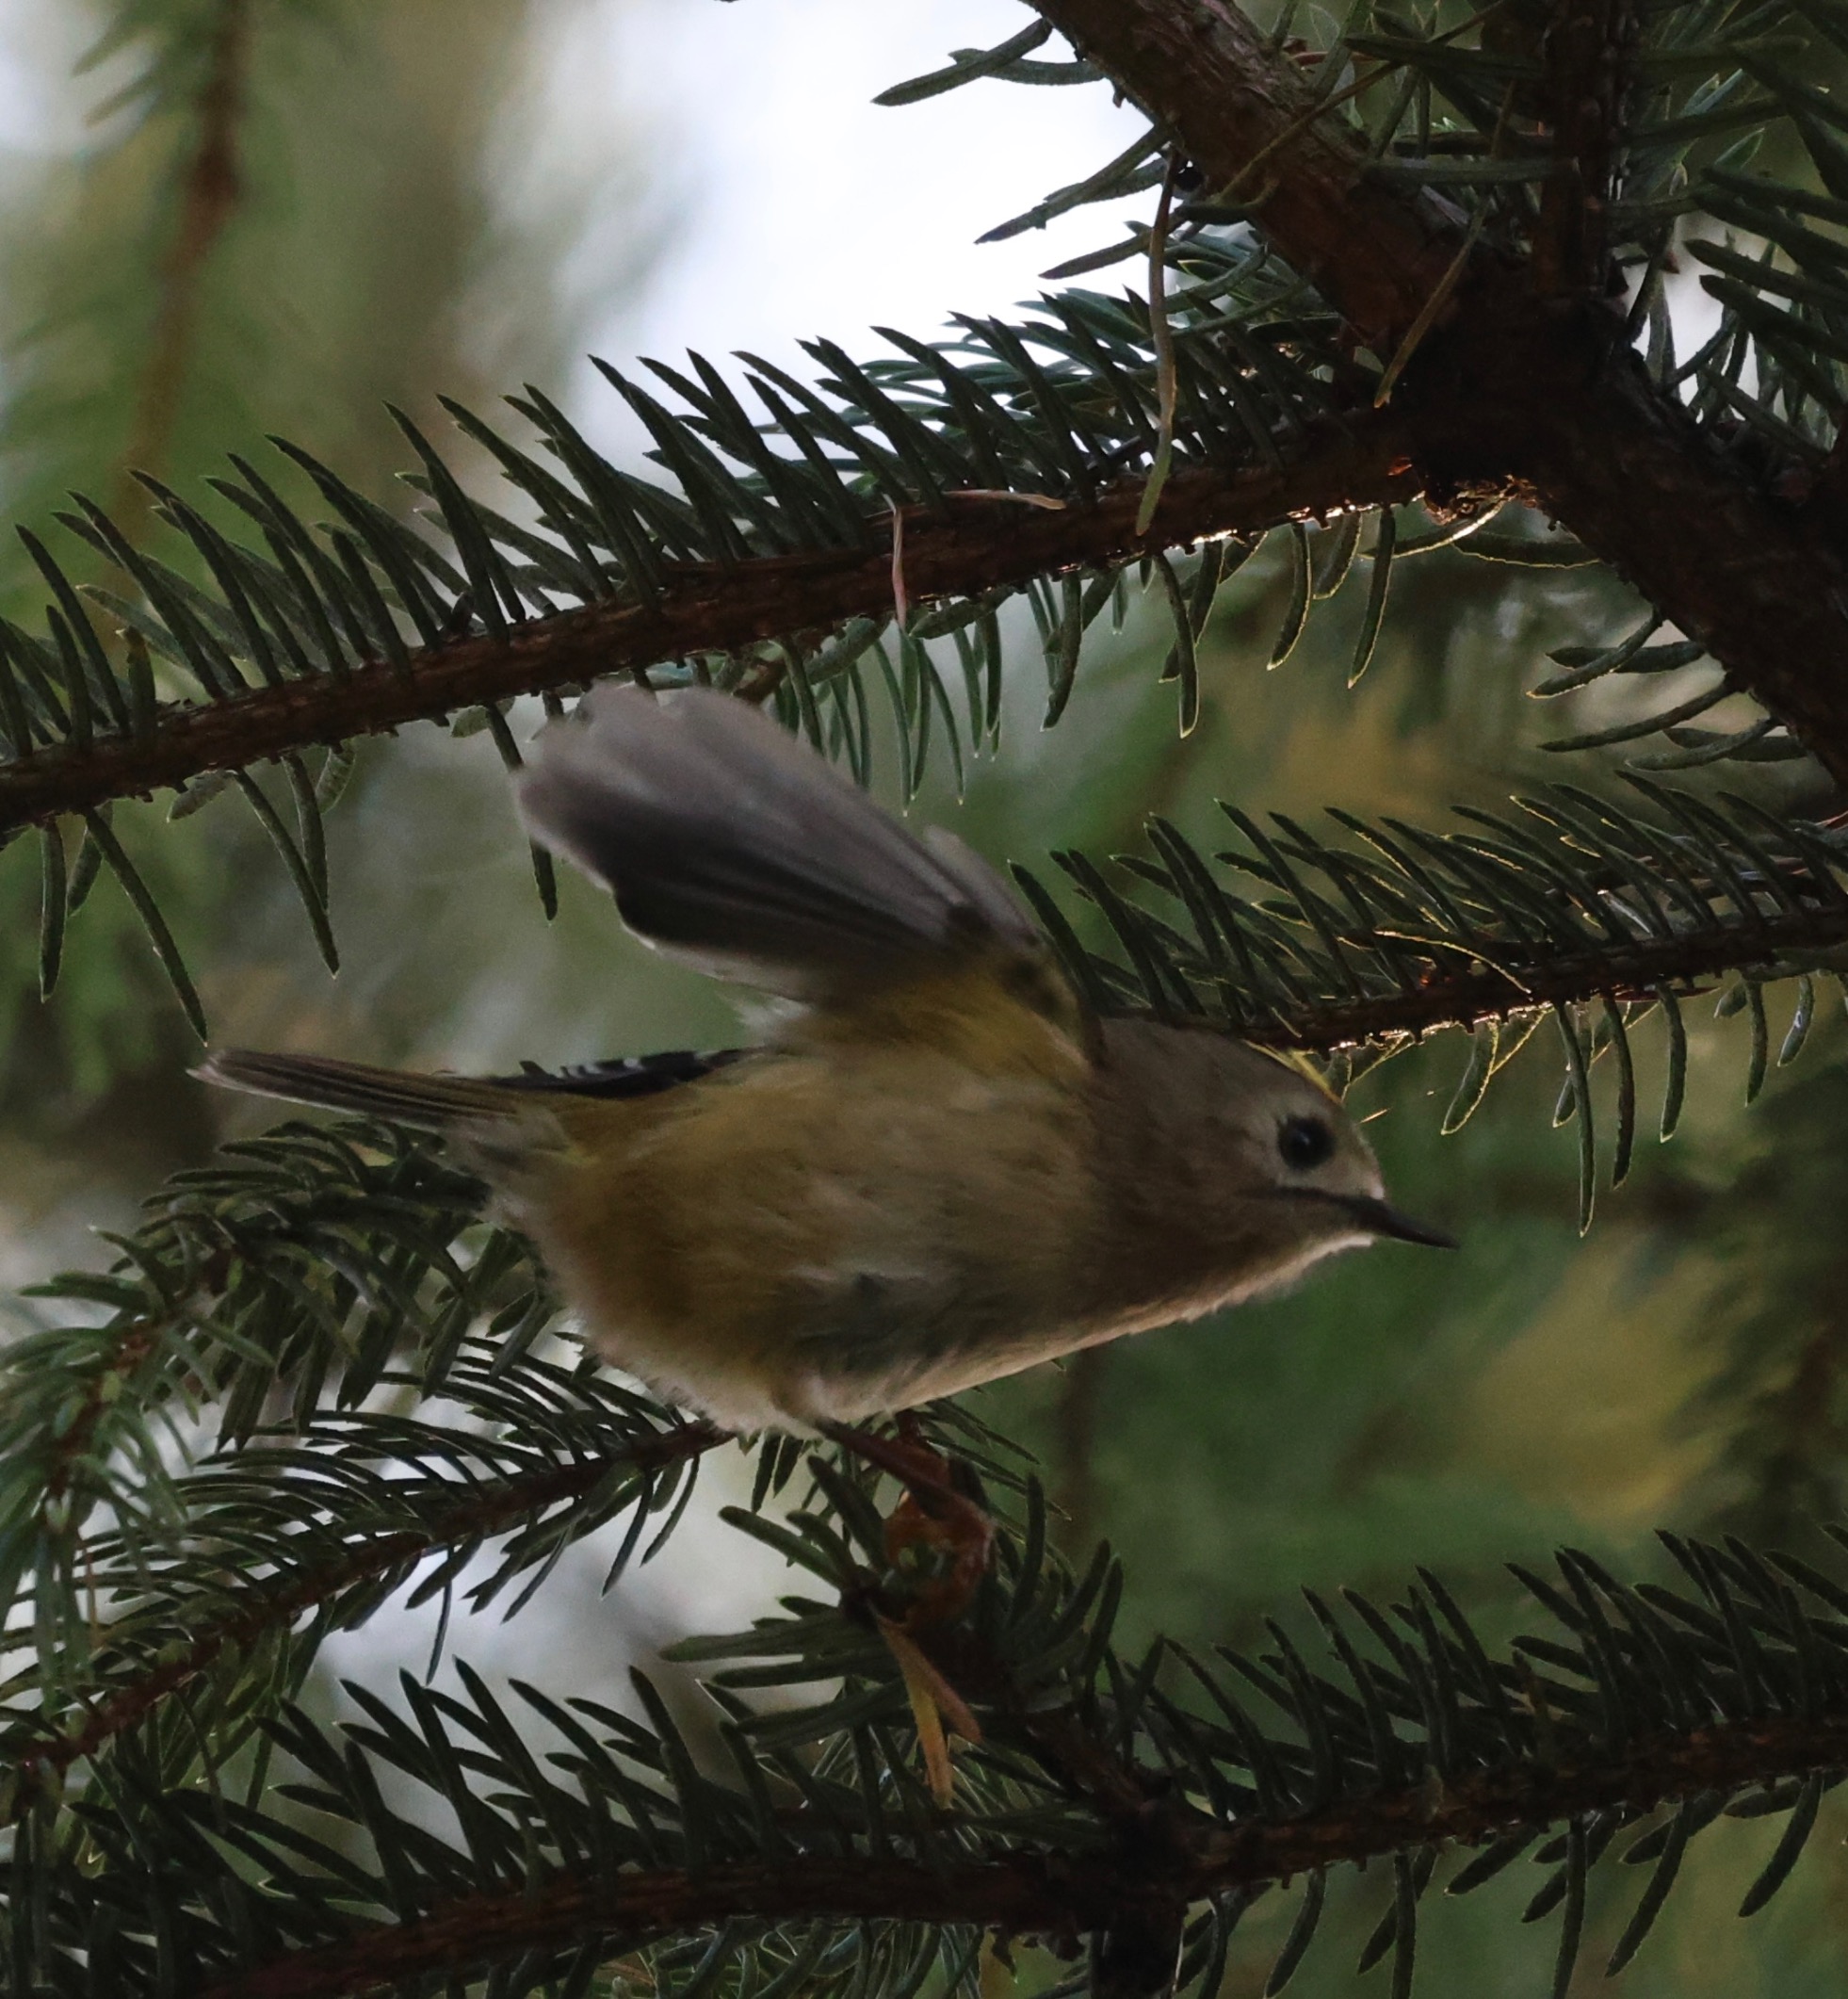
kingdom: Animalia
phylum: Chordata
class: Aves
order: Passeriformes
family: Regulidae
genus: Regulus
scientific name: Regulus regulus
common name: Fuglekonge
